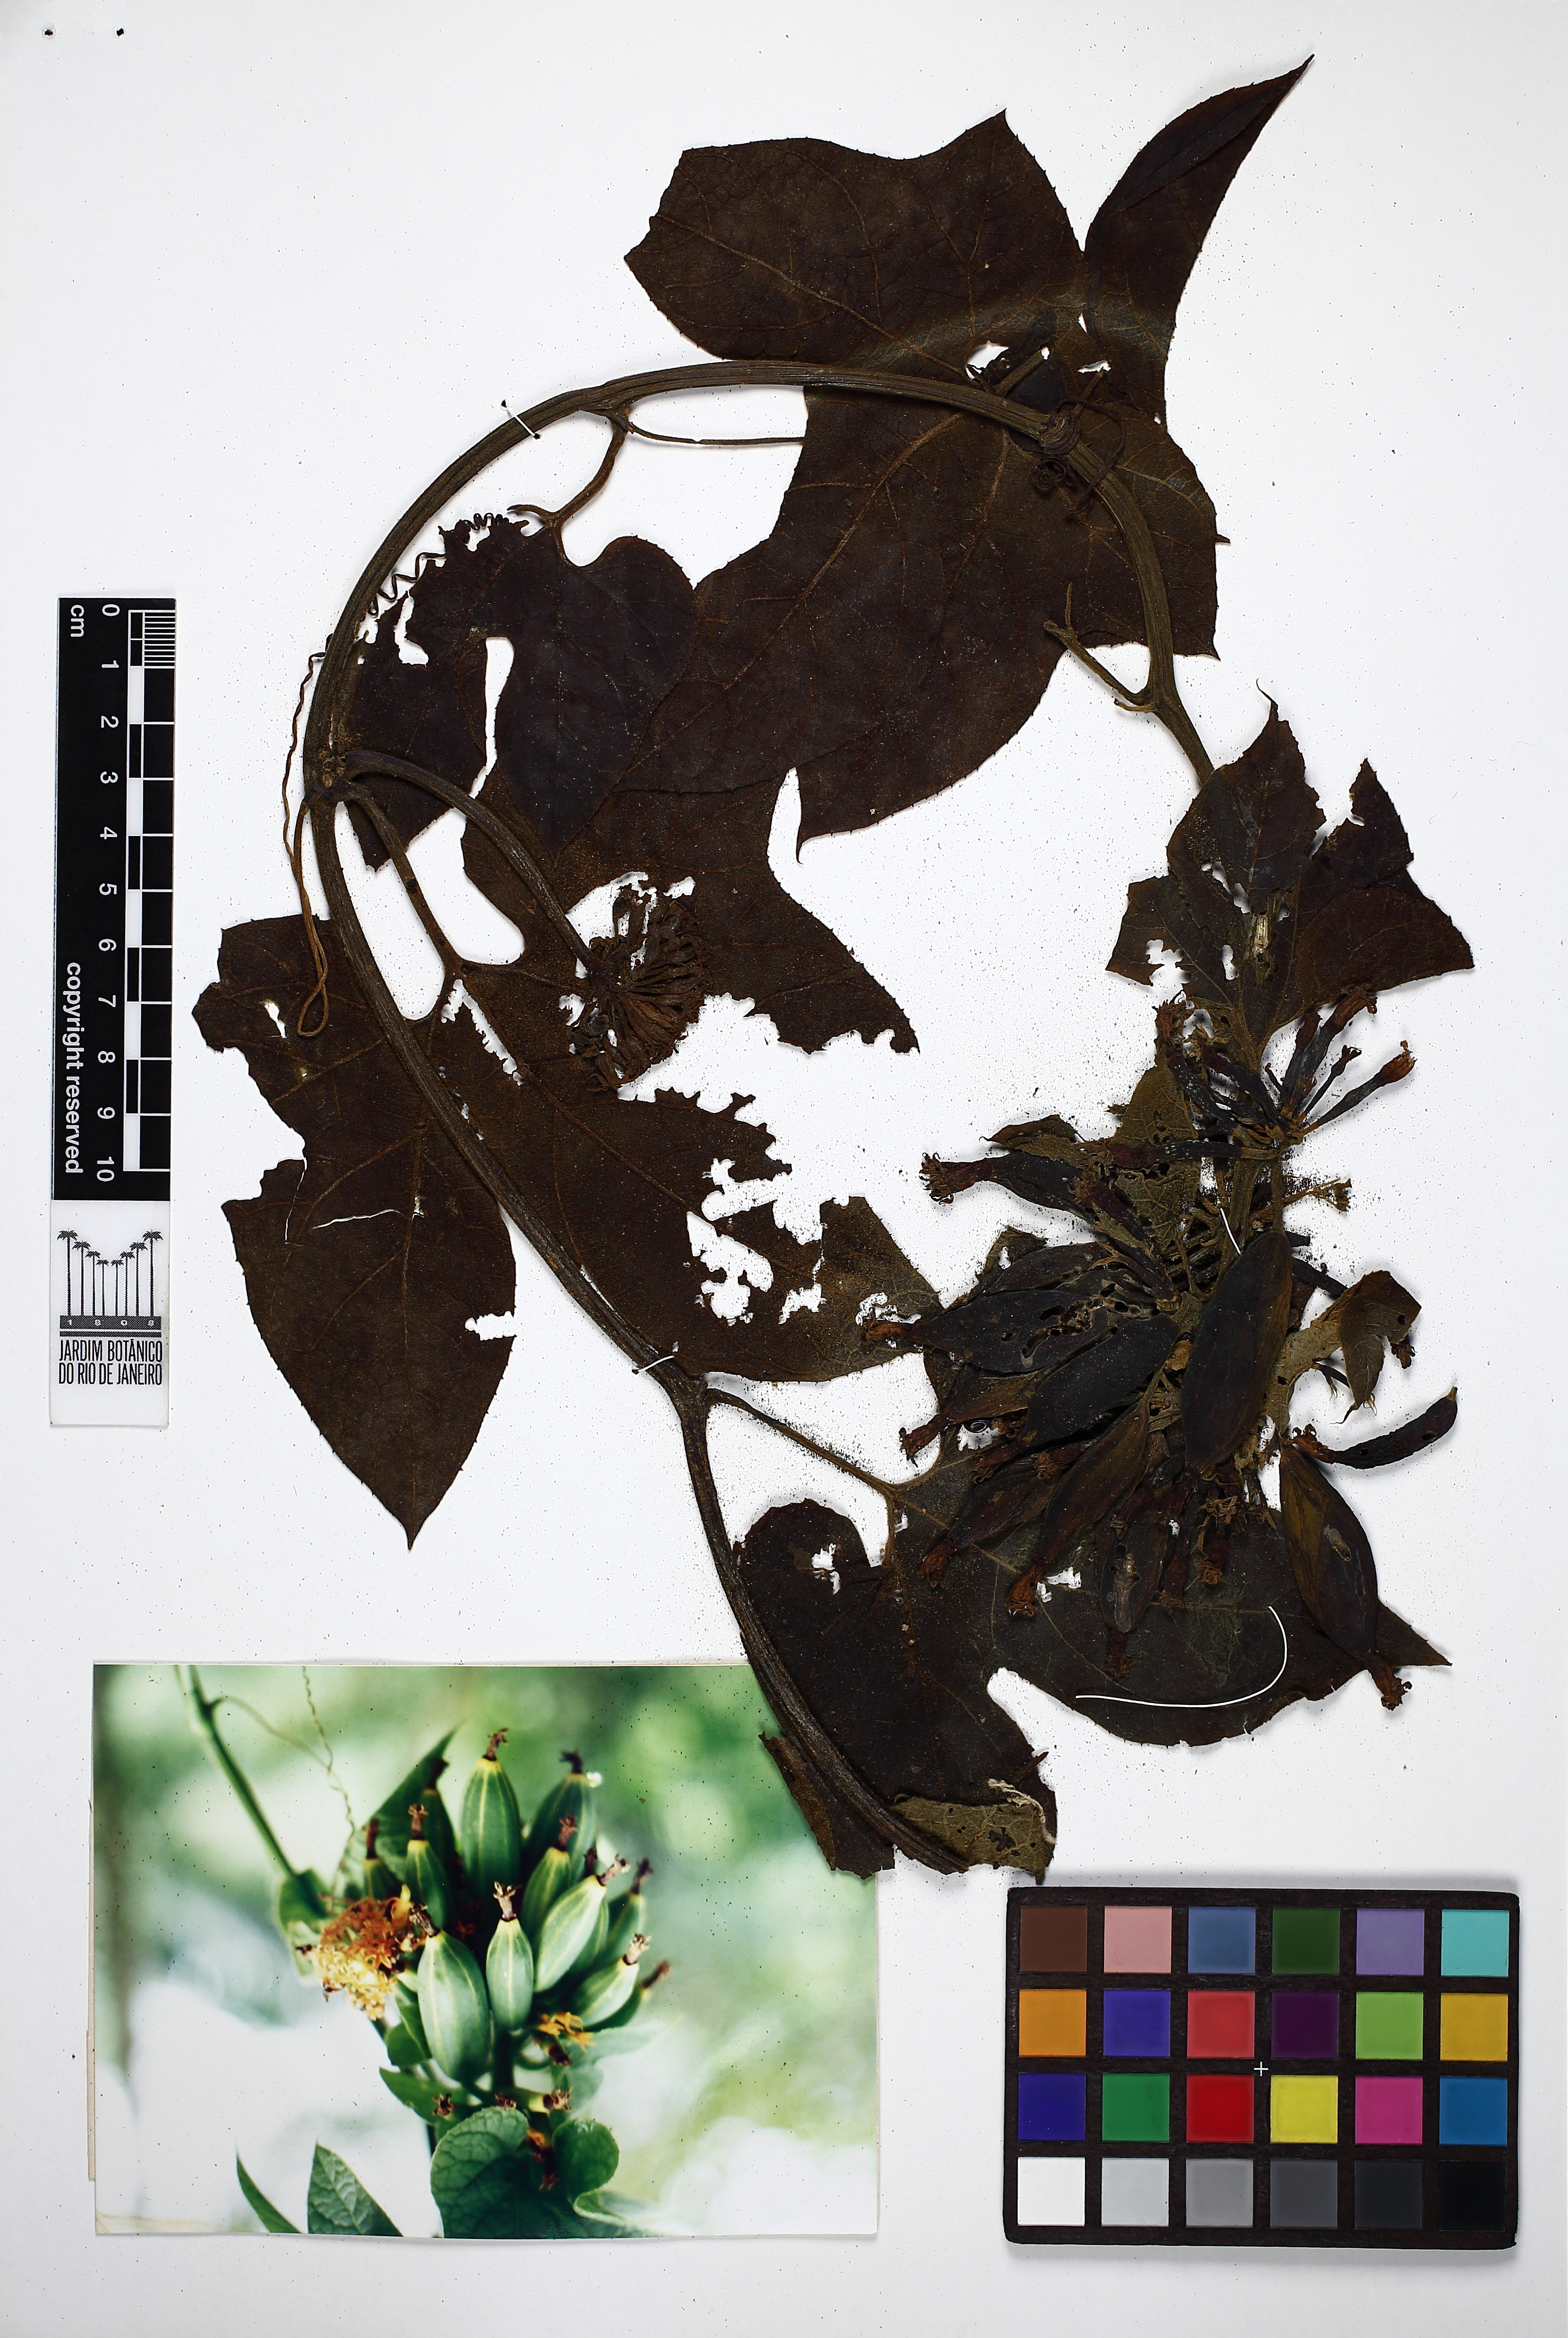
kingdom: Plantae
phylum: Tracheophyta
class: Magnoliopsida
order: Cucurbitales
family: Cucurbitaceae
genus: Gurania
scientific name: Gurania subumbellata
